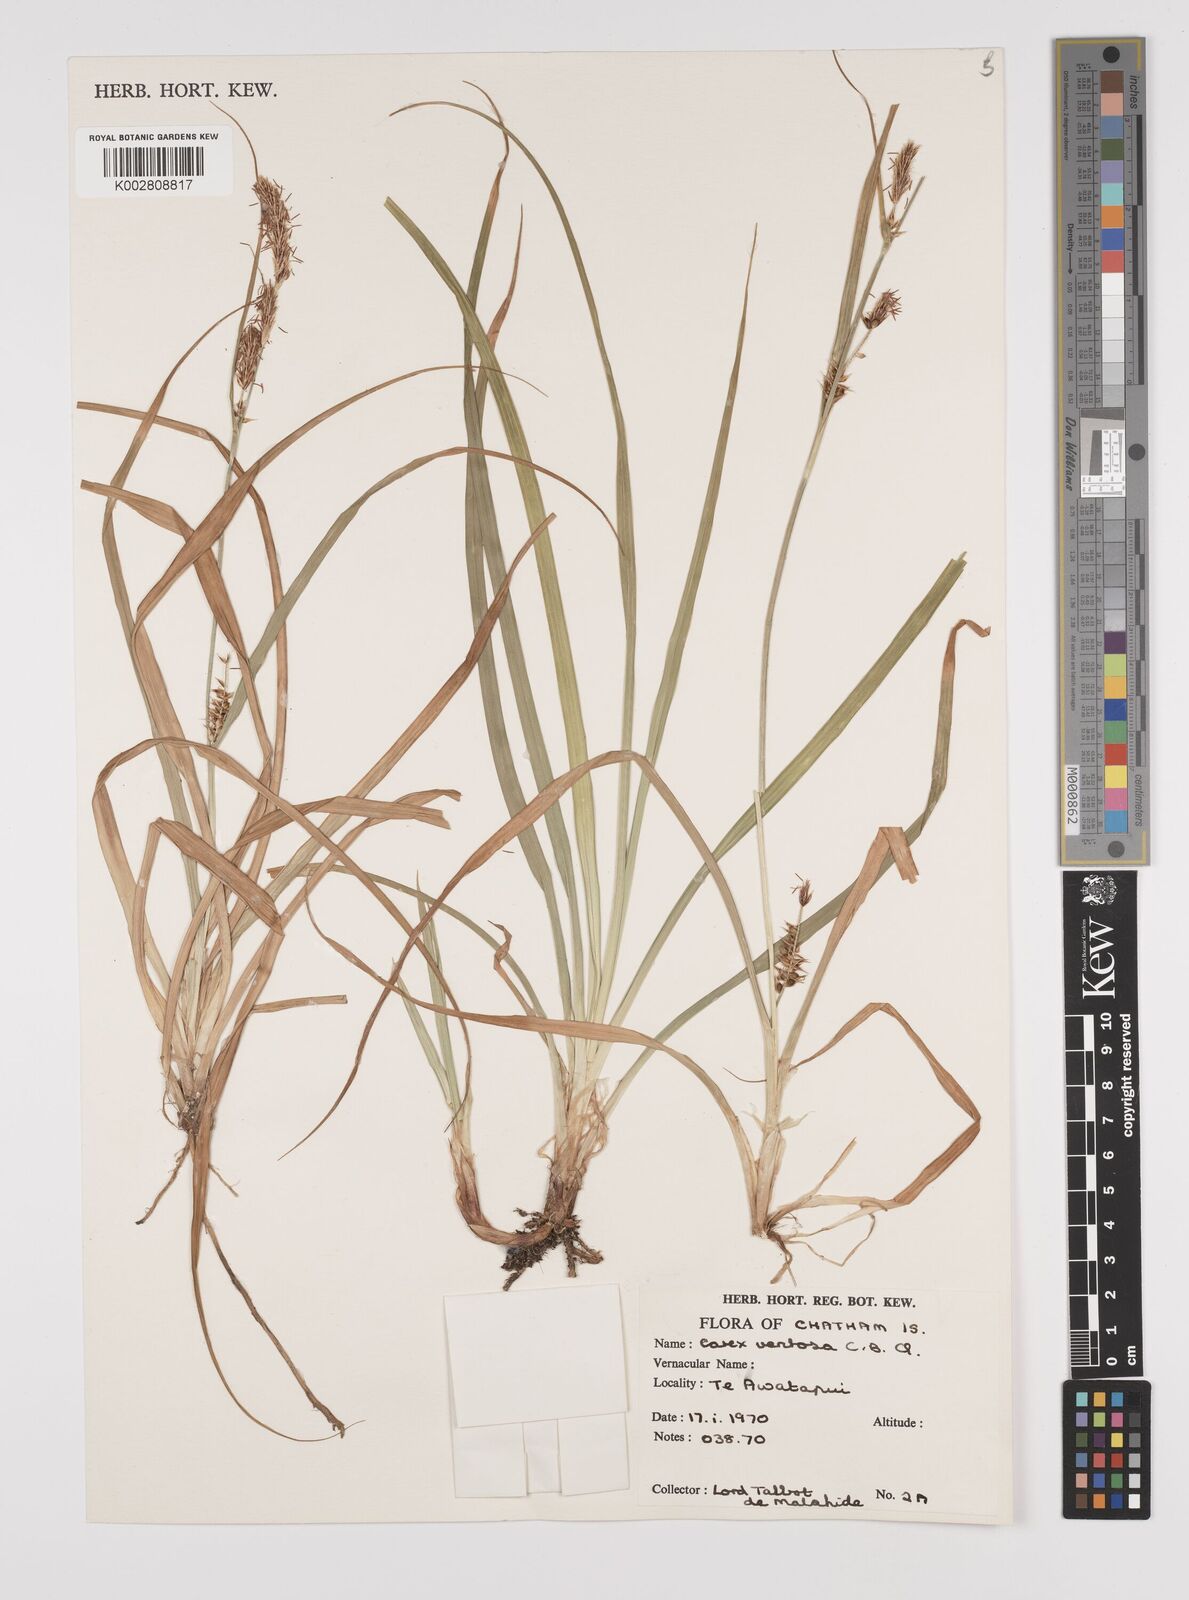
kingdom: Plantae
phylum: Tracheophyta
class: Liliopsida
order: Poales
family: Cyperaceae
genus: Carex
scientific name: Carex ventosa
